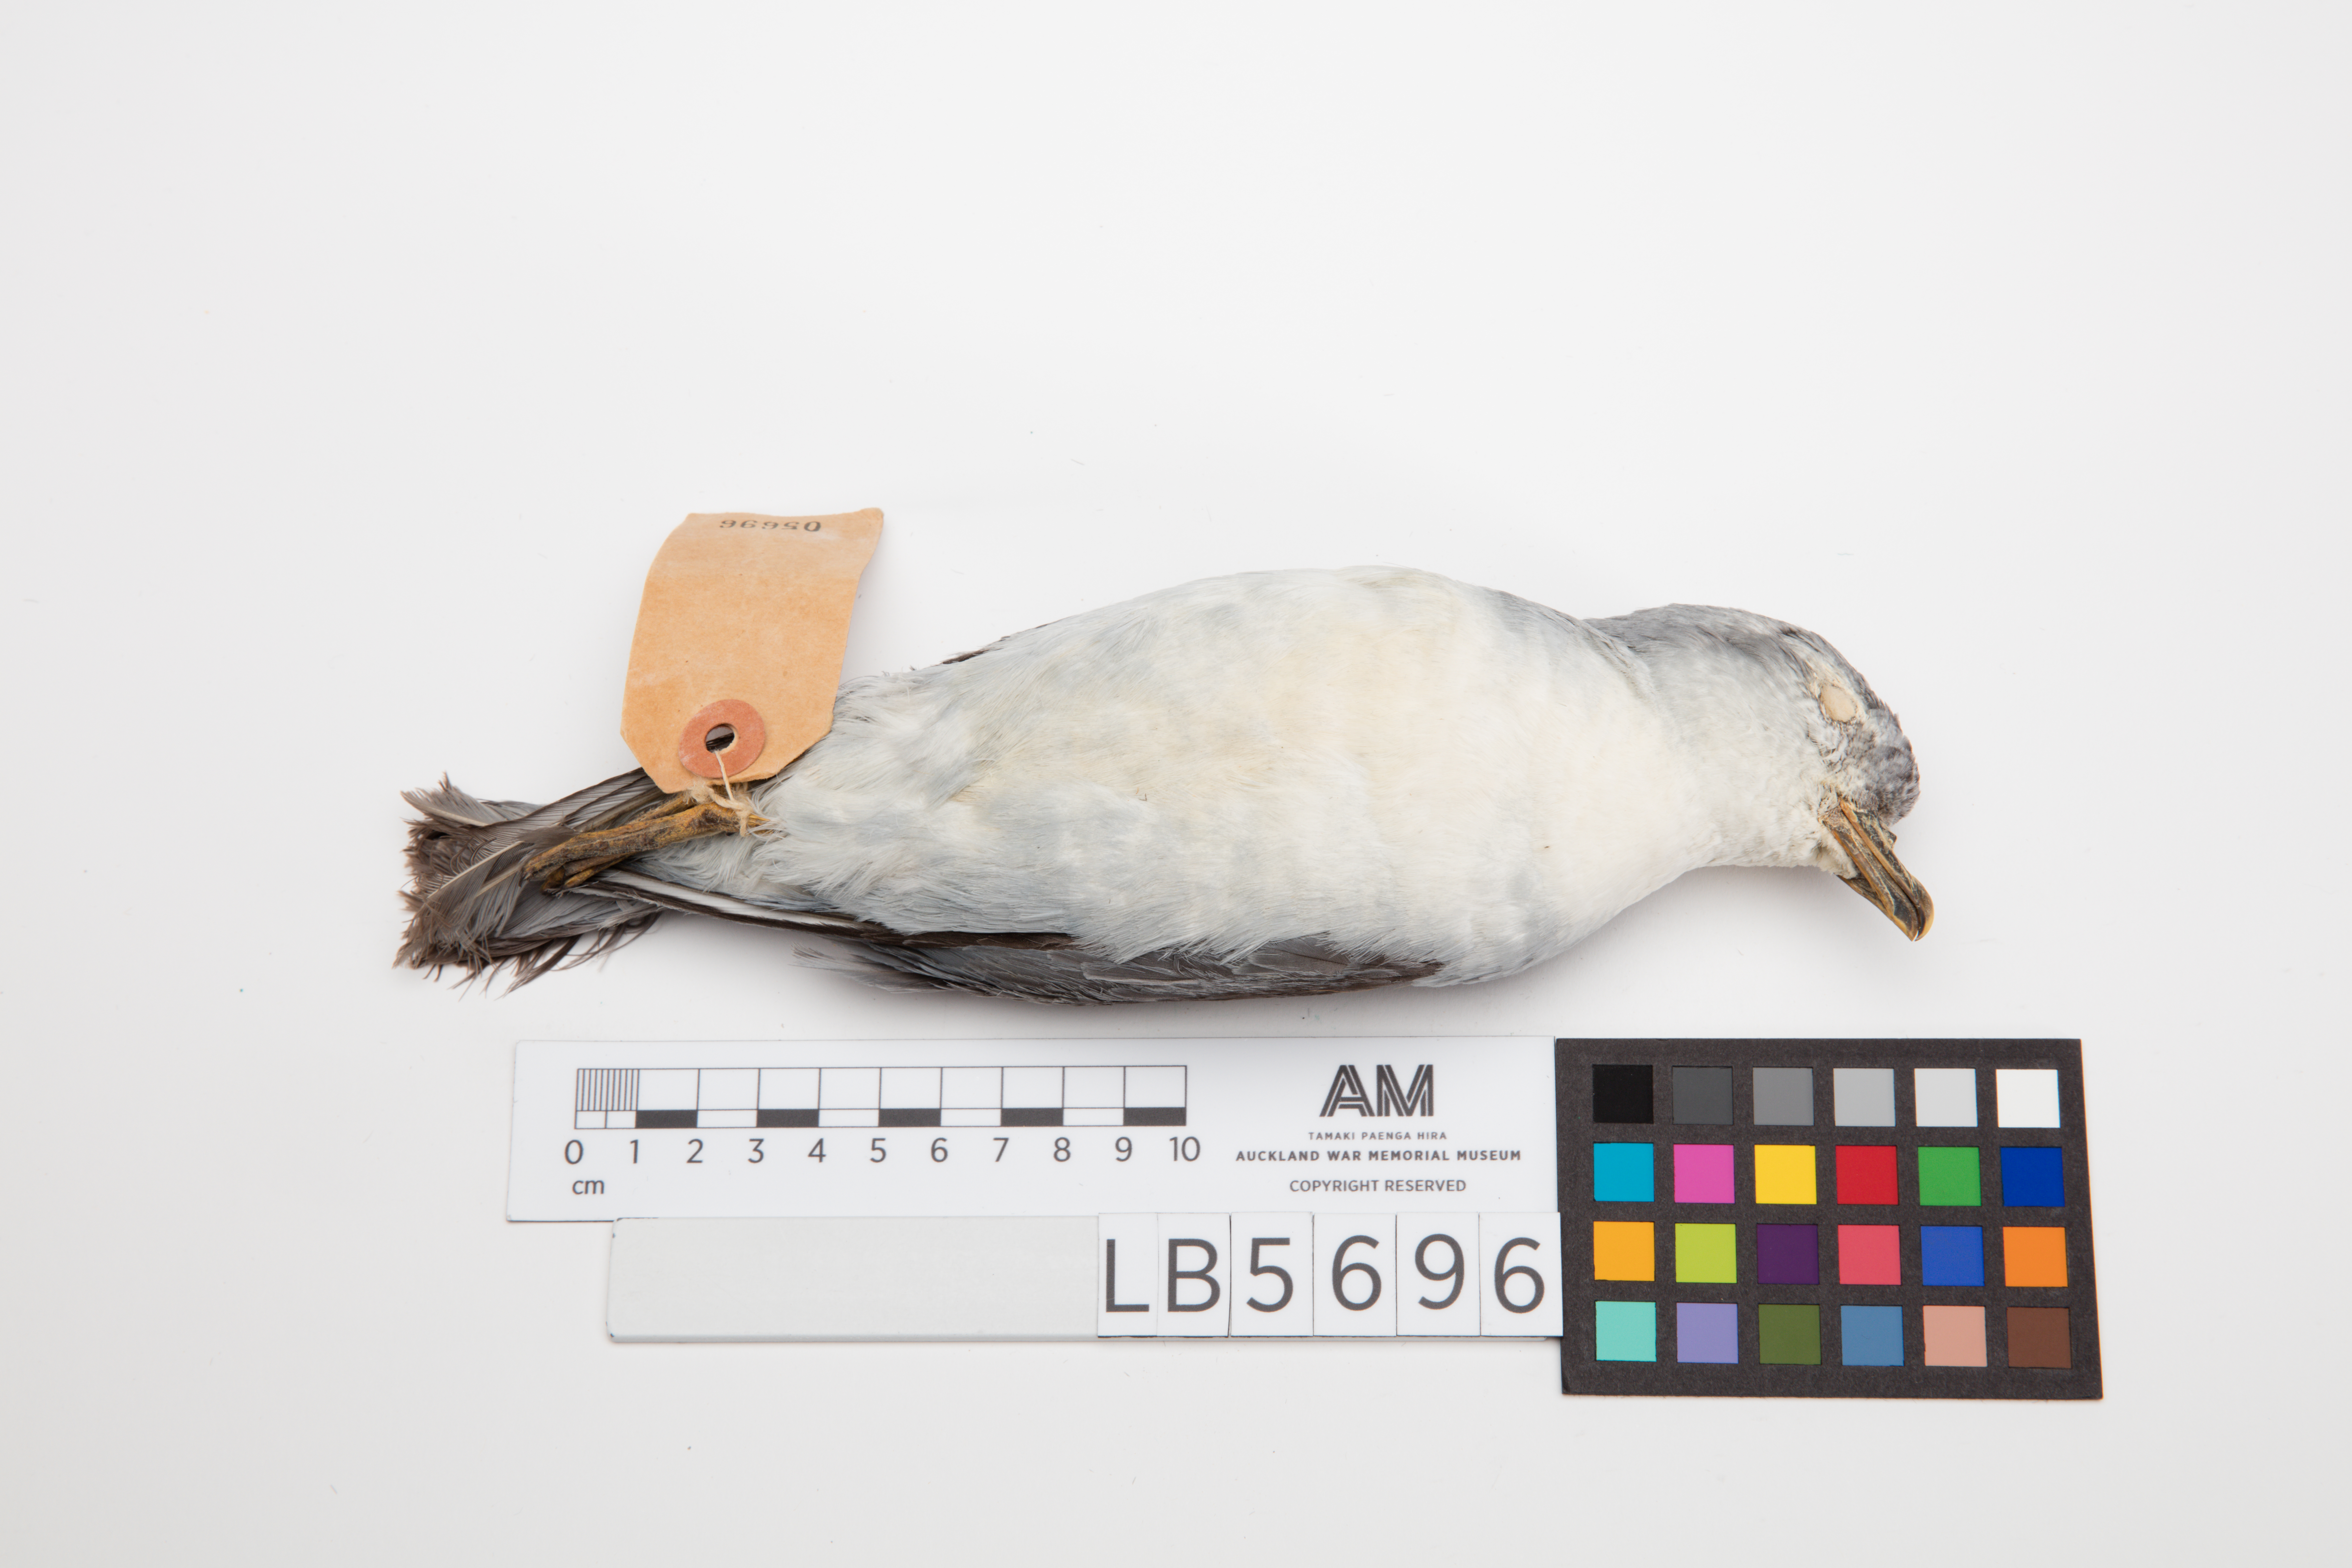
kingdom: Animalia
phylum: Chordata
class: Aves
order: Procellariiformes
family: Procellariidae
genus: Pachyptila
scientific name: Pachyptila turtur
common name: Fairy prion
